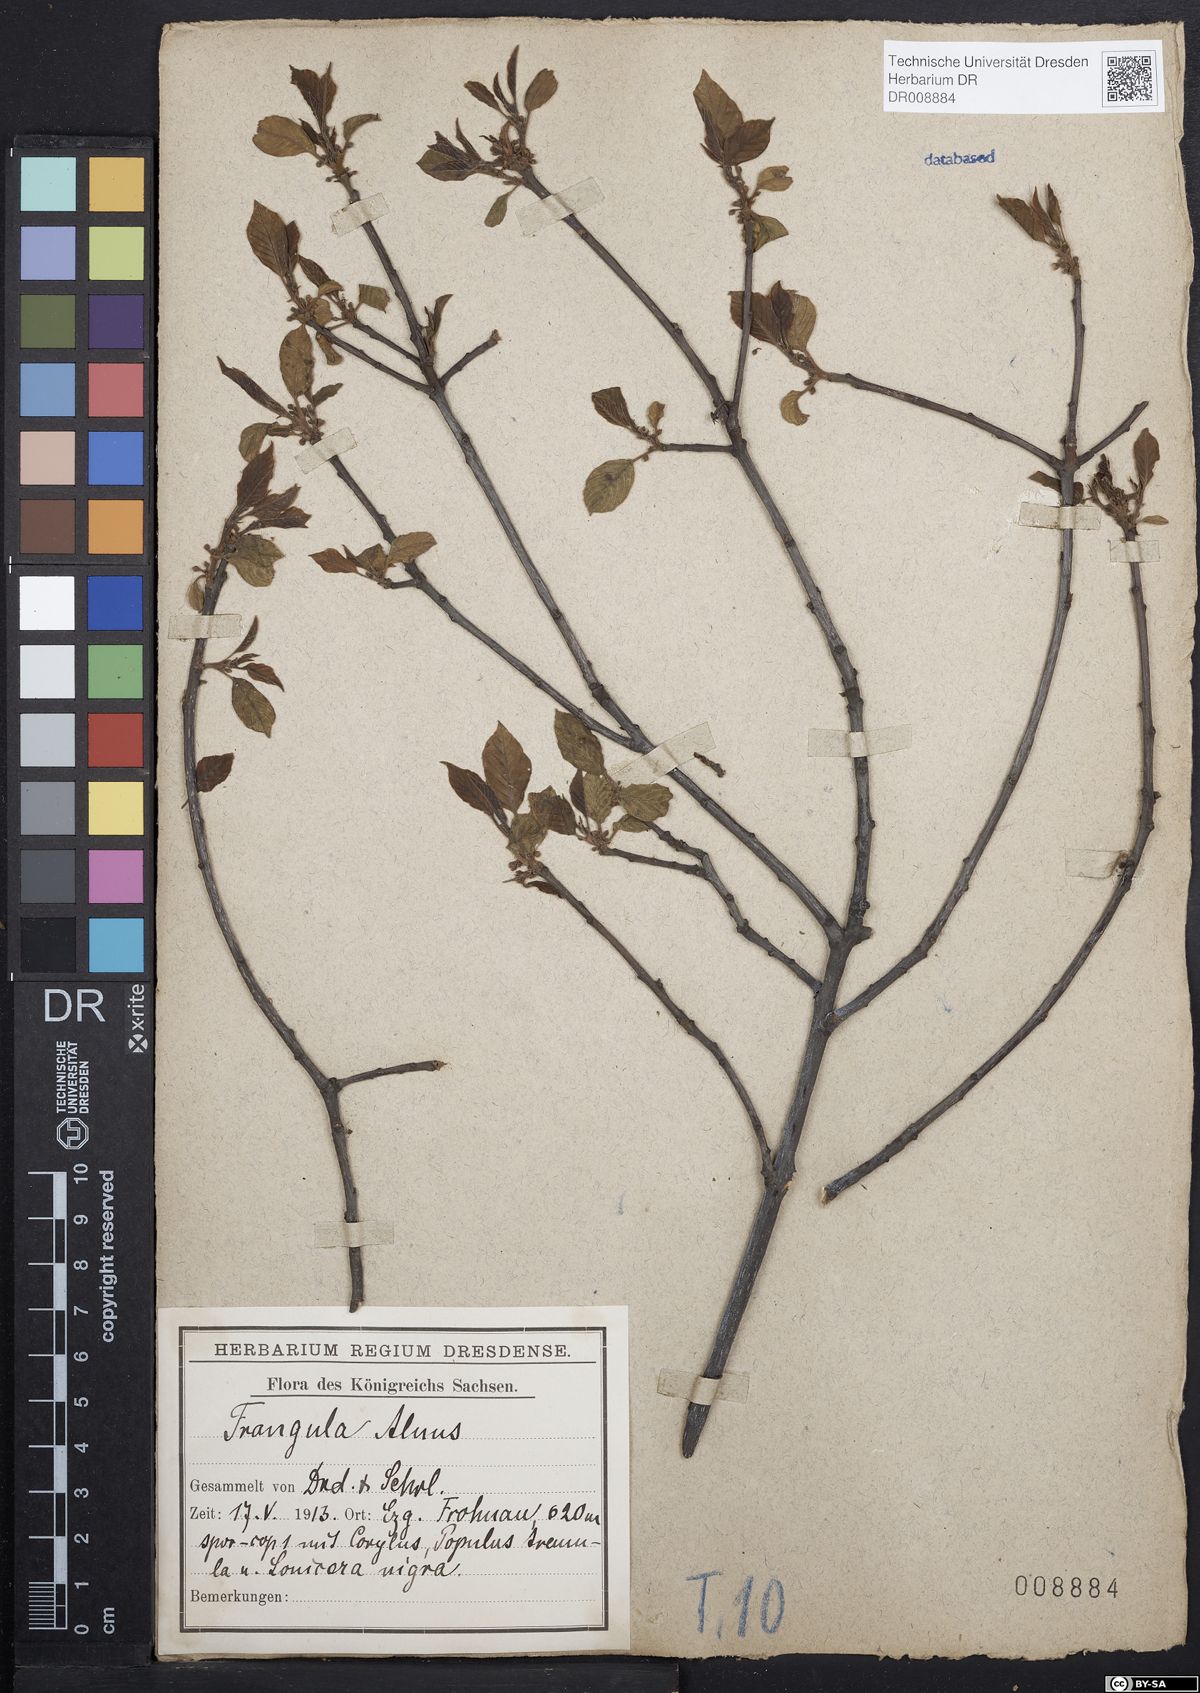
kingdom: Plantae
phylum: Tracheophyta
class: Magnoliopsida
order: Rosales
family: Rhamnaceae
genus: Frangula
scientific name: Frangula alnus
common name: Alder buckthorn
